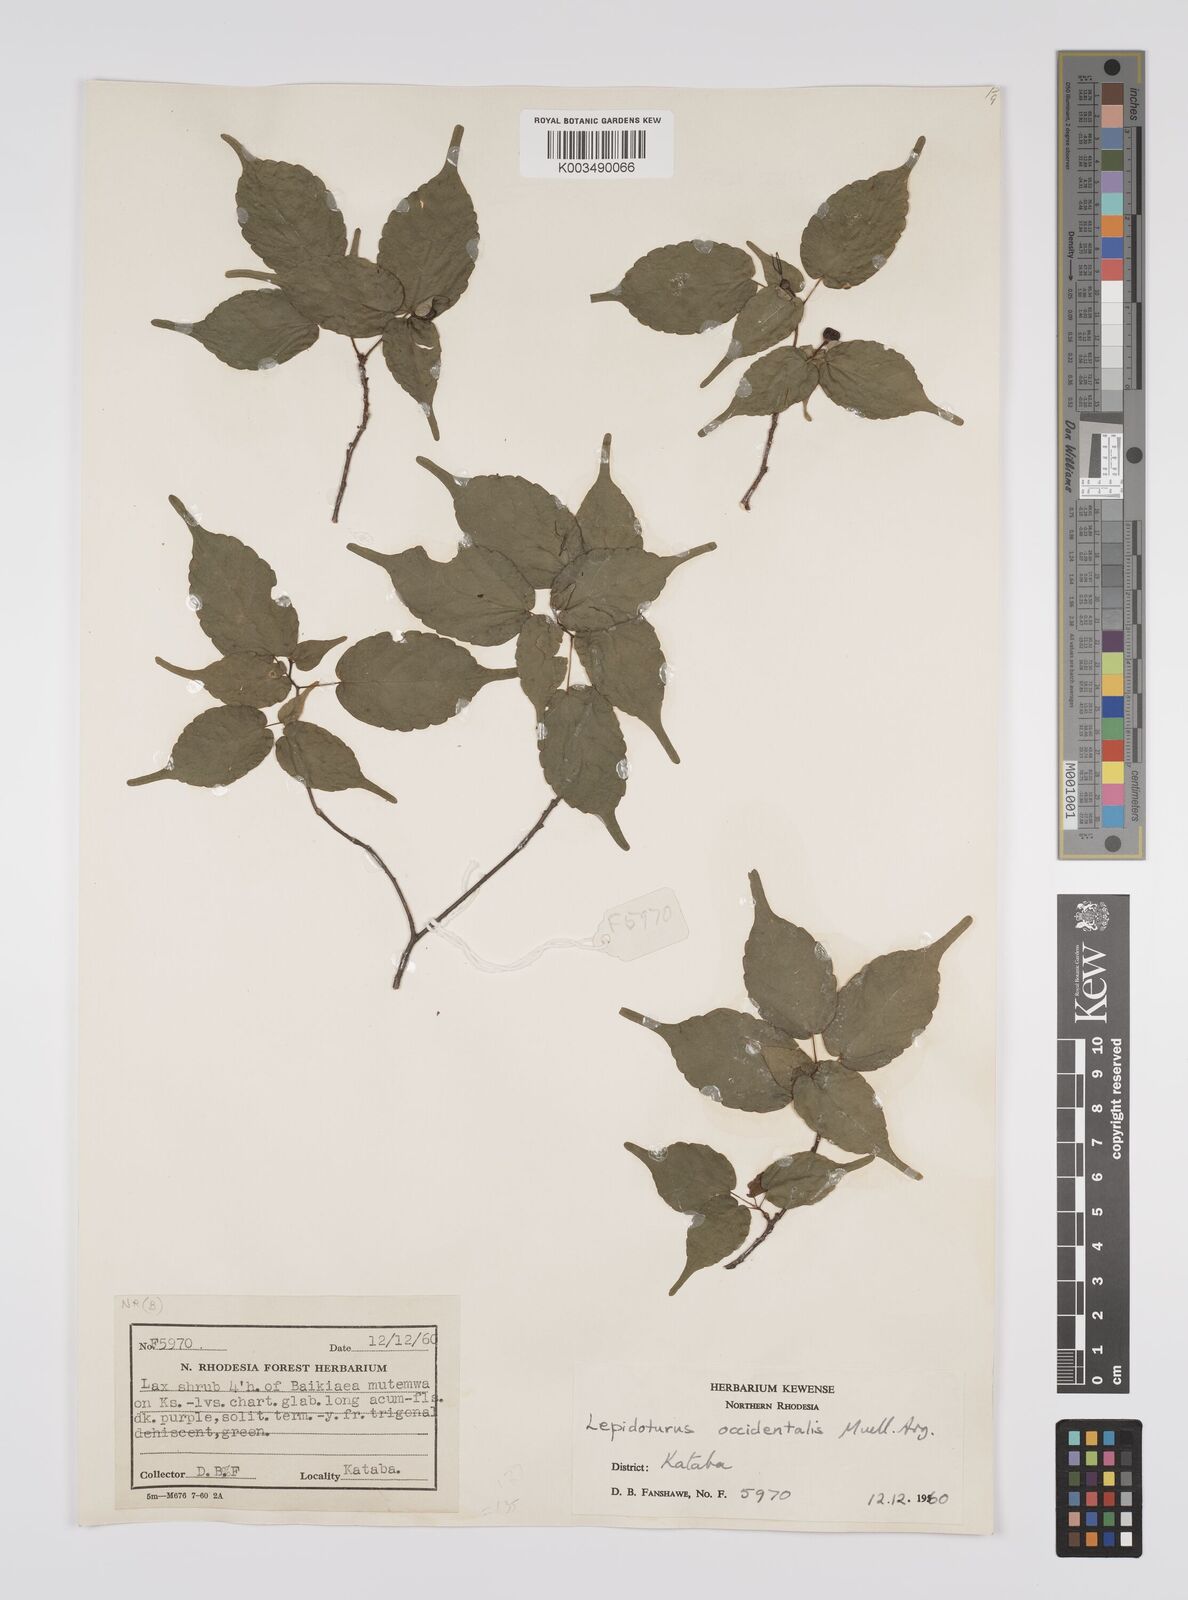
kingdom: Plantae
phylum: Tracheophyta
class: Magnoliopsida
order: Malpighiales
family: Euphorbiaceae
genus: Alchornea
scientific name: Alchornea occidentalis
